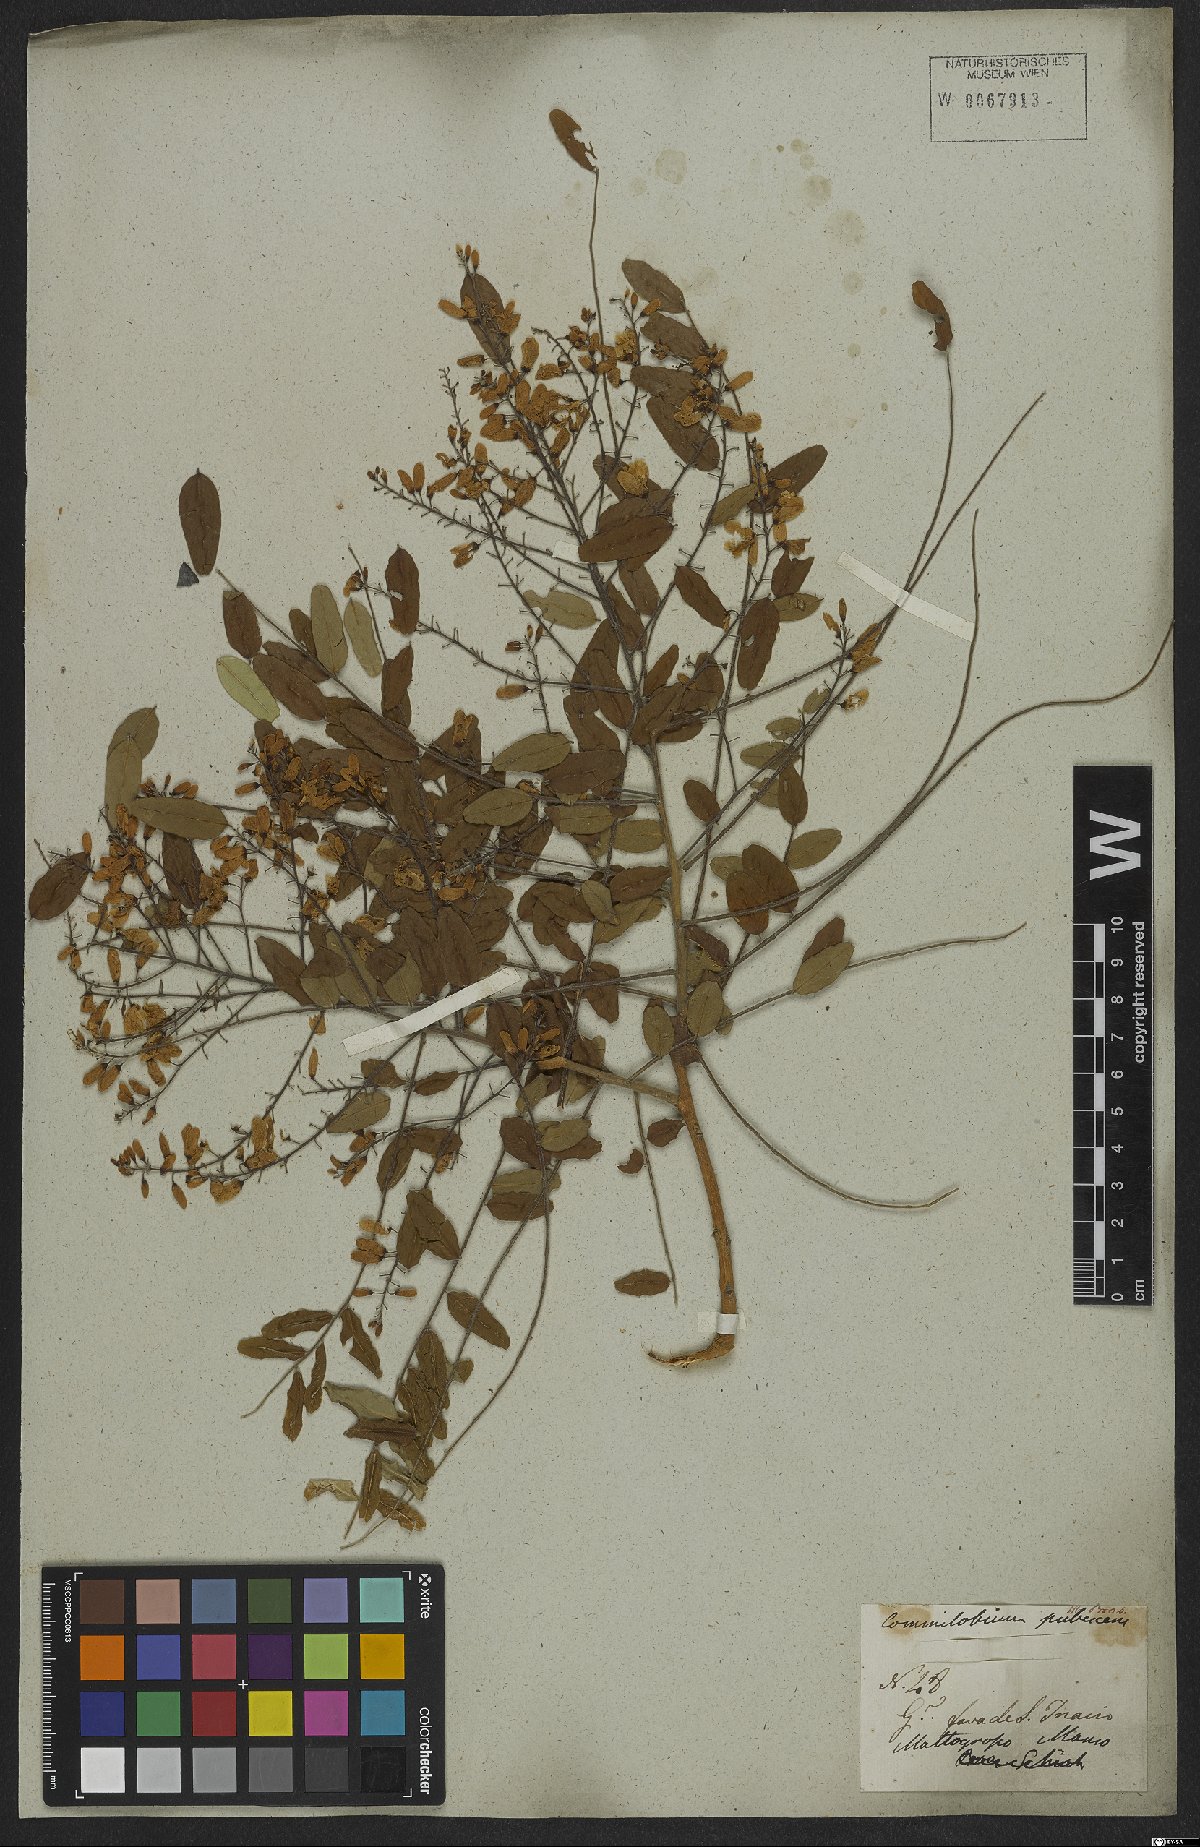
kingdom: Plantae
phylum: Tracheophyta
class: Magnoliopsida
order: Fabales
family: Fabaceae
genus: Pterodon
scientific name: Pterodon emarginatus
